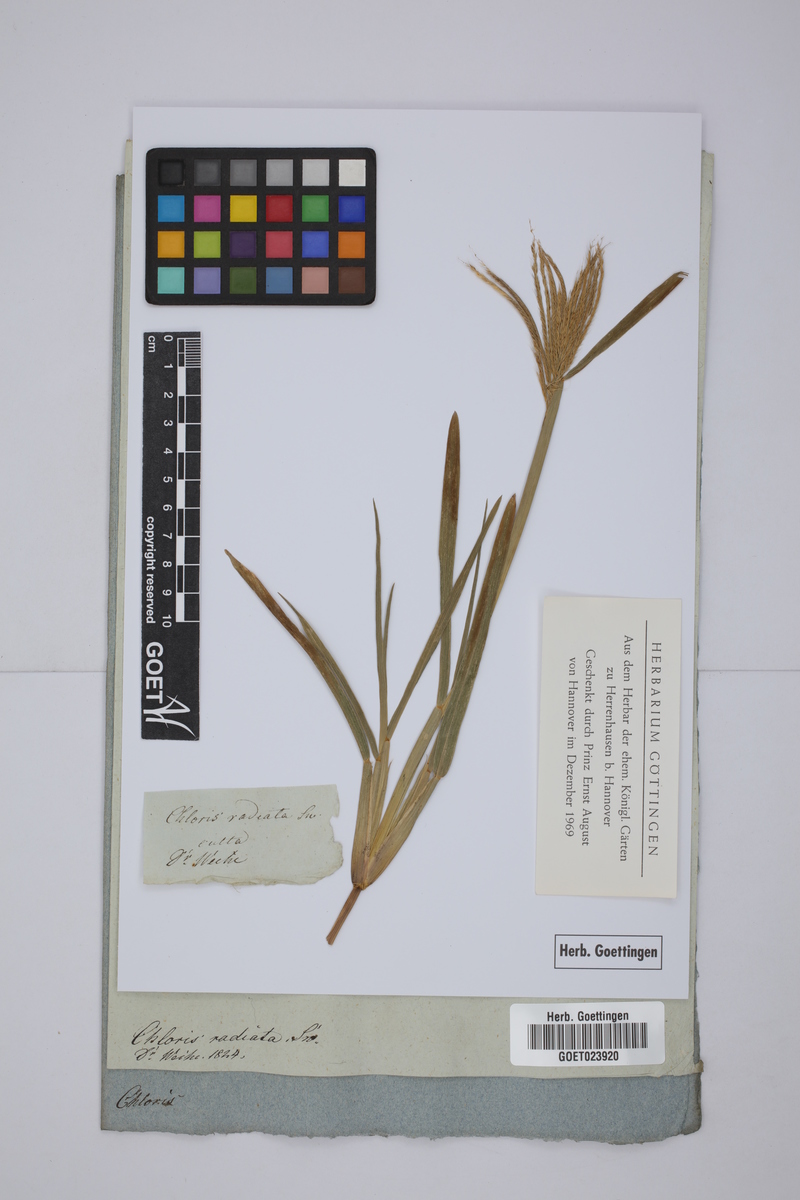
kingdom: Plantae
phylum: Tracheophyta
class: Liliopsida
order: Poales
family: Poaceae
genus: Chloris
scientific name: Chloris radiata
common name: Radiate fingergrass
